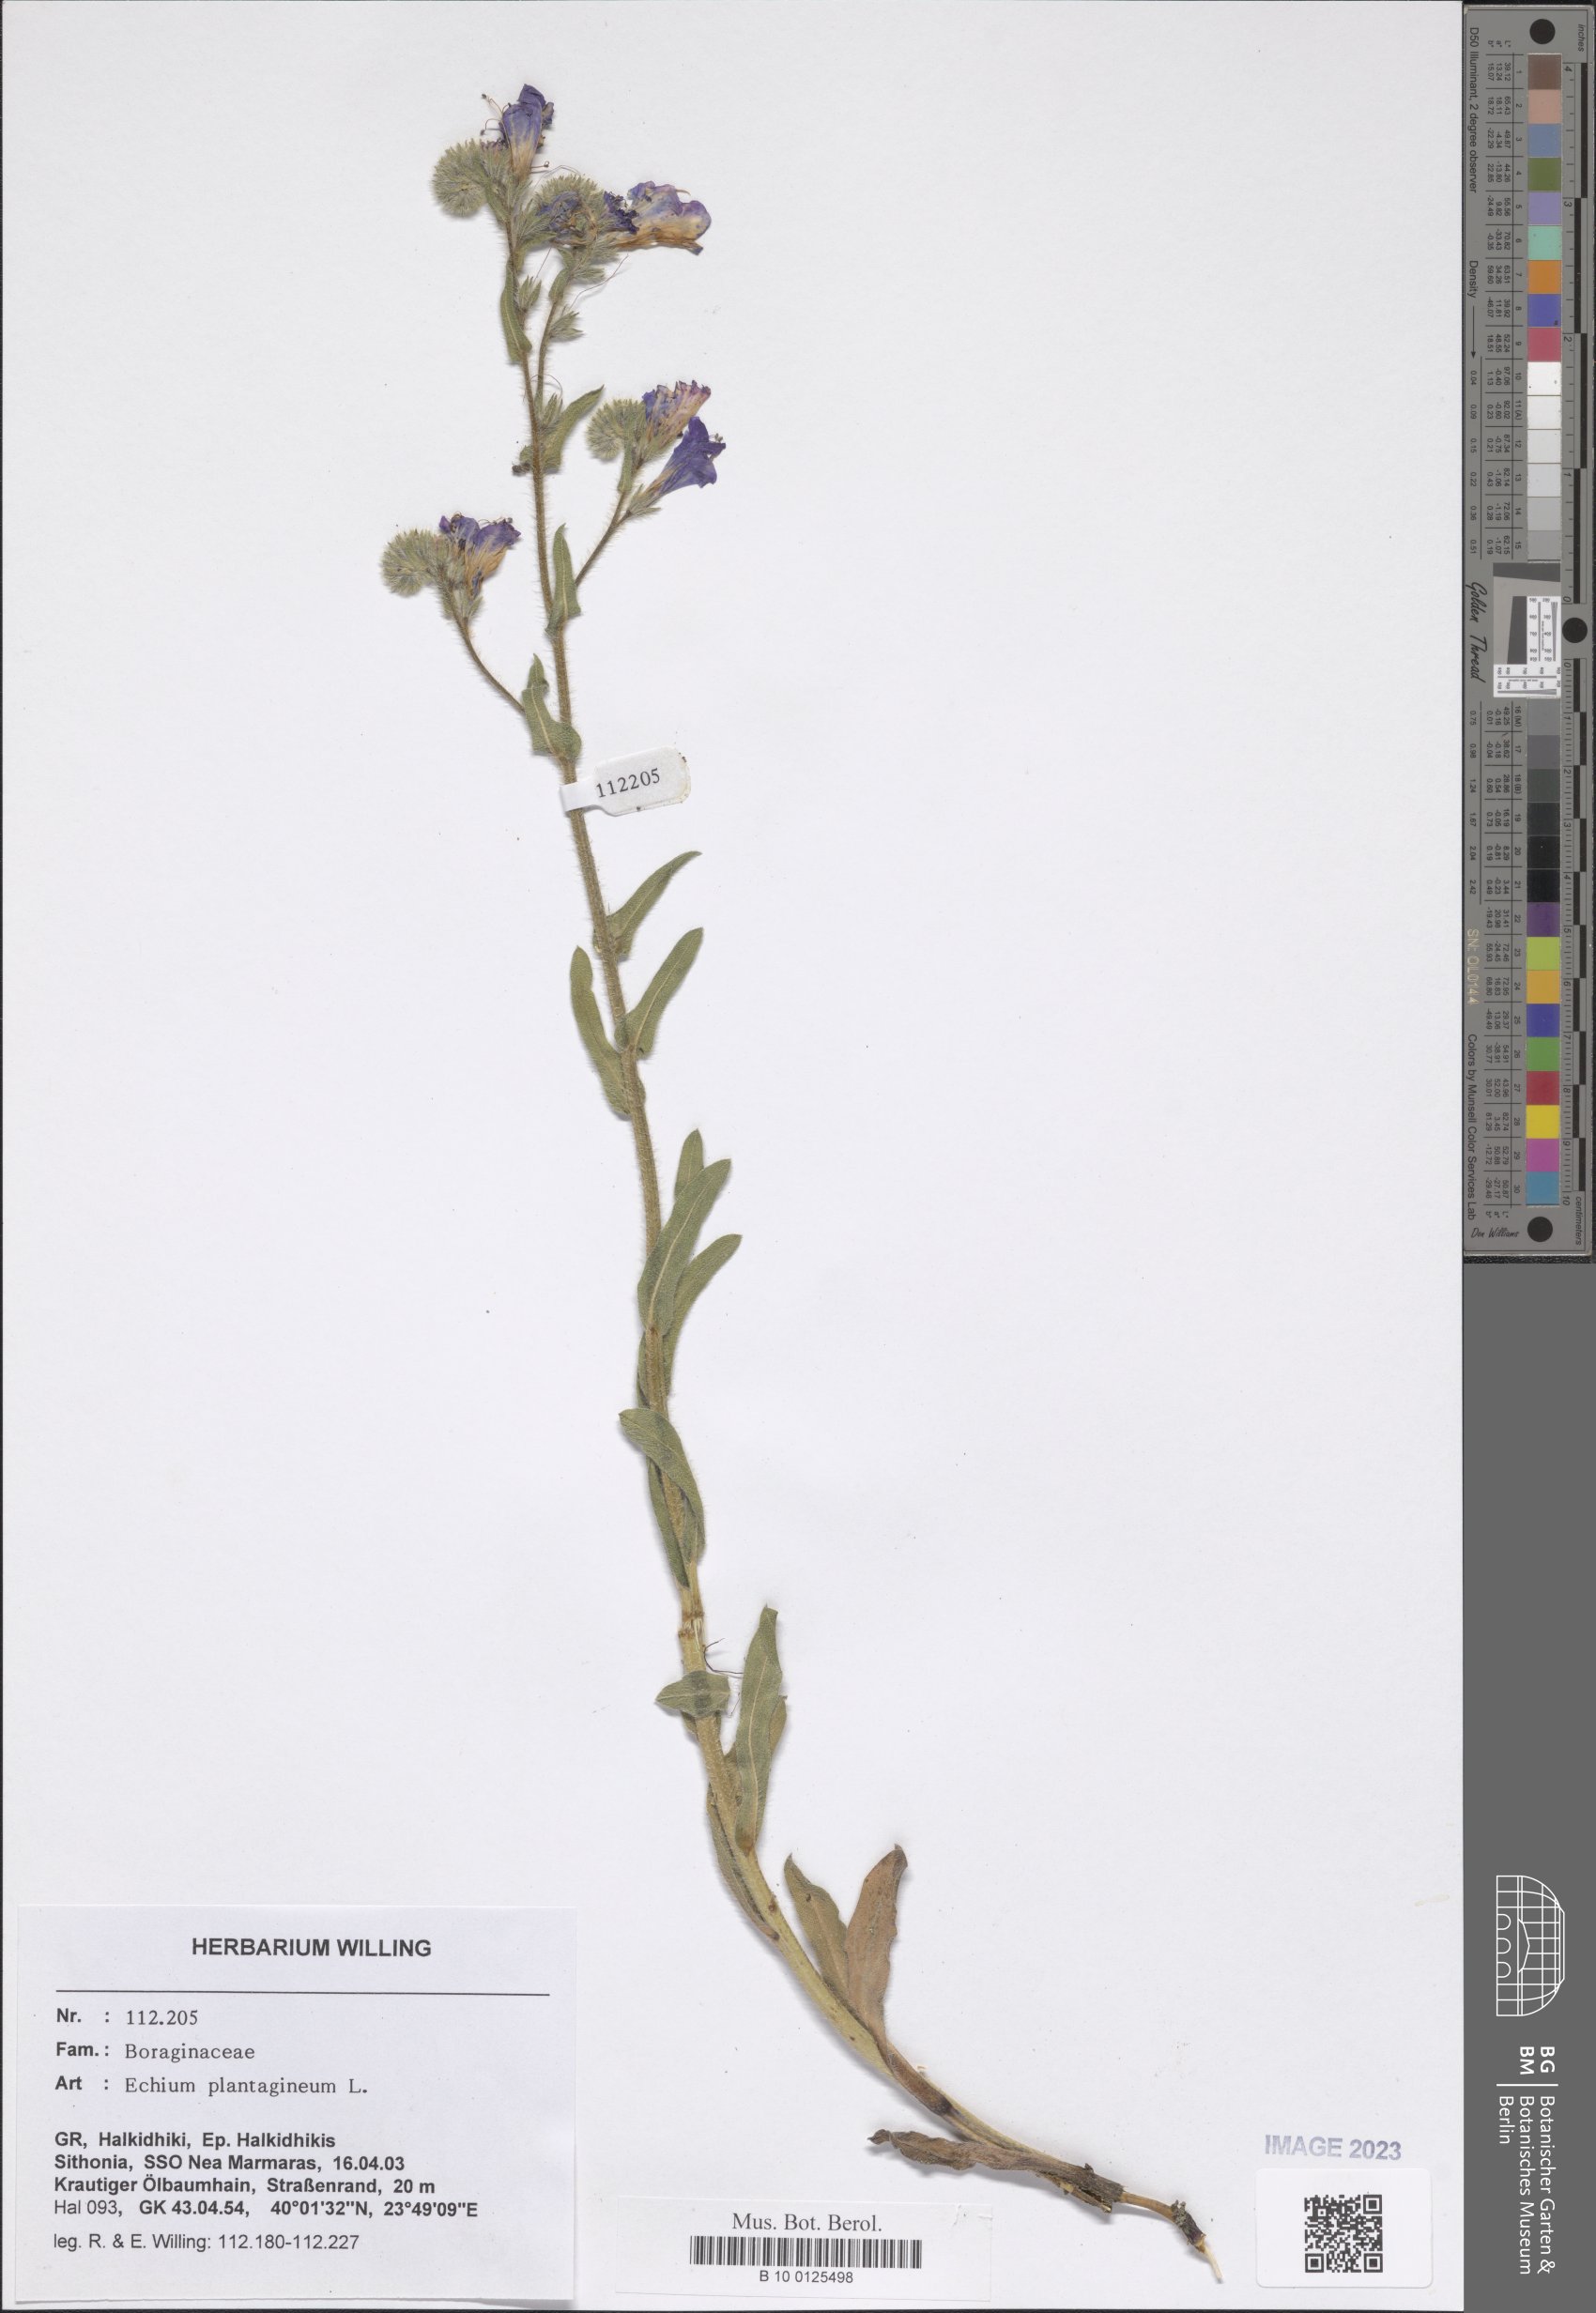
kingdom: Plantae
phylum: Tracheophyta
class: Magnoliopsida
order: Boraginales
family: Boraginaceae
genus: Echium
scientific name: Echium plantagineum
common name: Purple viper's-bugloss
